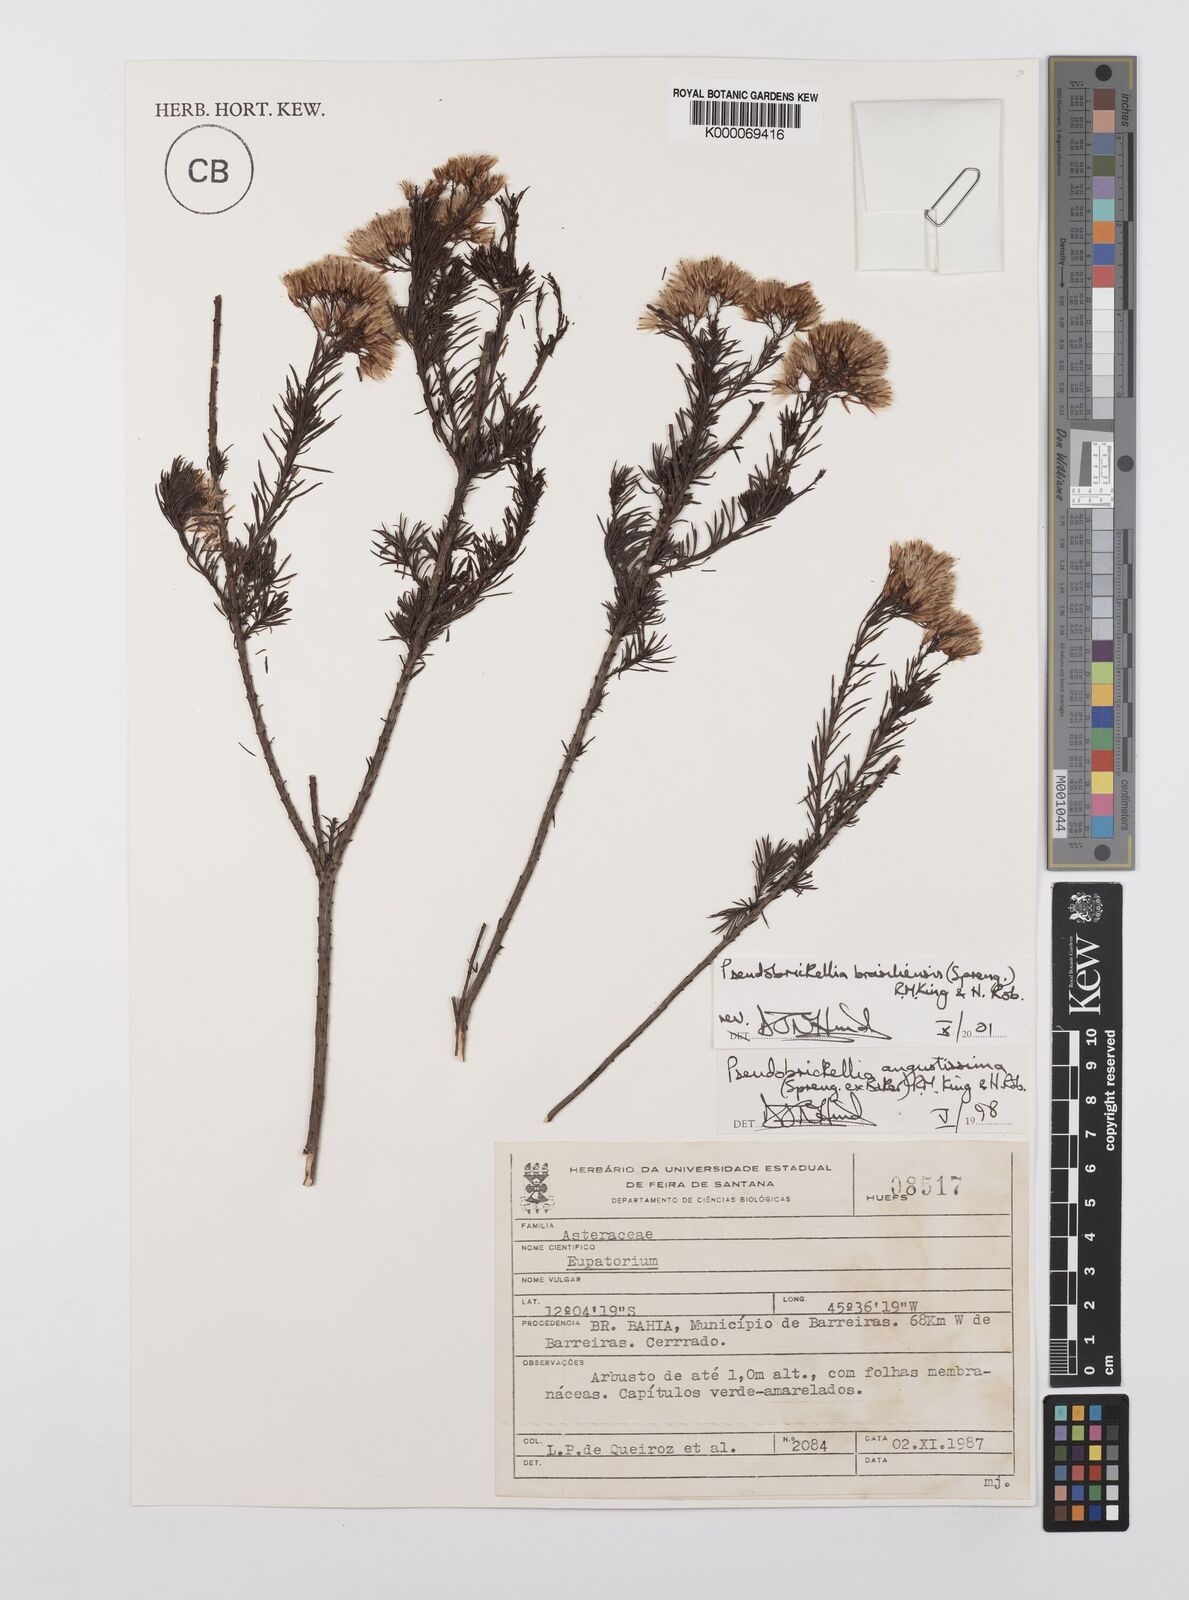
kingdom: Plantae
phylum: Tracheophyta
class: Magnoliopsida
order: Asterales
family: Asteraceae
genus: Pseudobrickellia
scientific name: Pseudobrickellia brasiliensis
